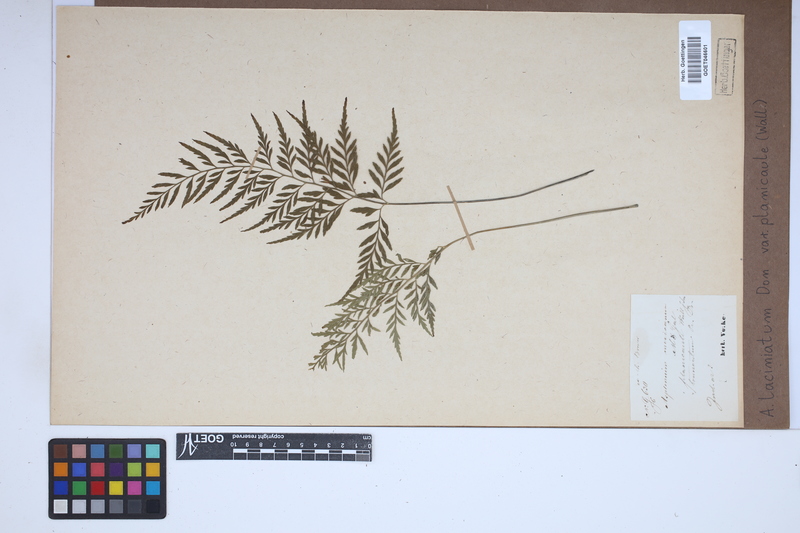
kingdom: Plantae
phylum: Tracheophyta
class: Polypodiopsida
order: Polypodiales
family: Aspleniaceae
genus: Asplenium
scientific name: Asplenium lividum
